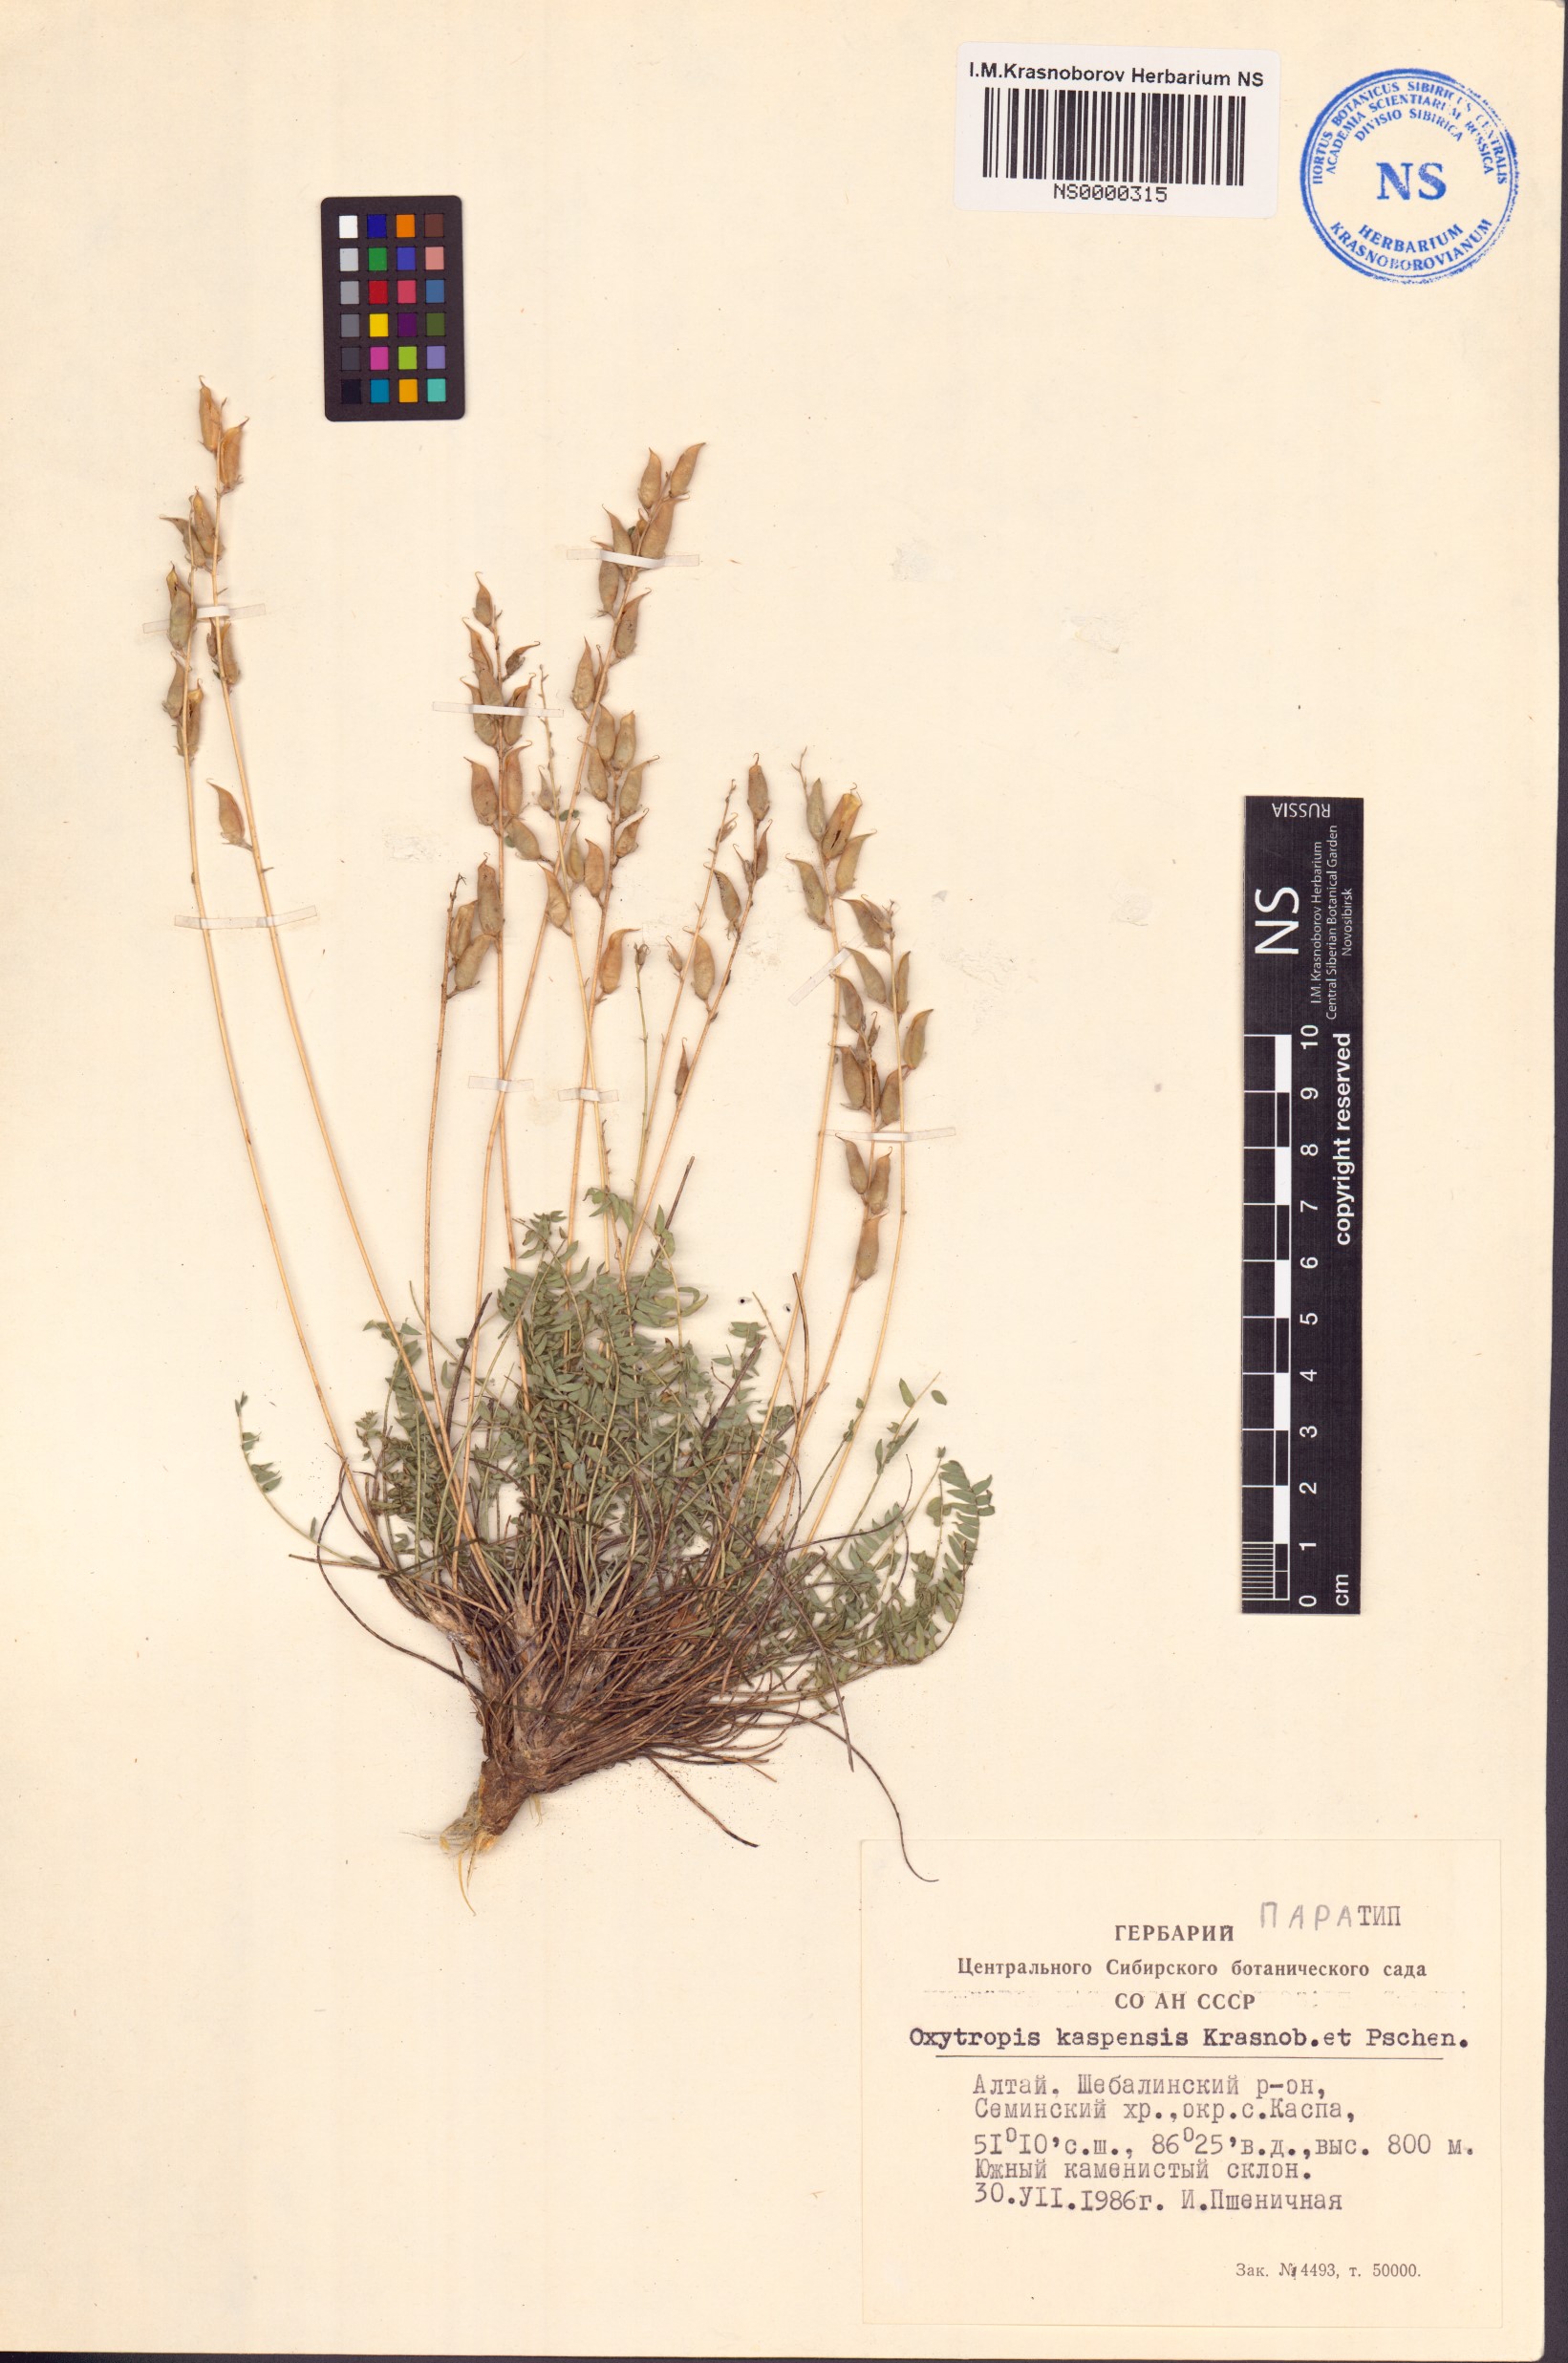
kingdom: Plantae
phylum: Tracheophyta
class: Magnoliopsida
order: Fabales
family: Fabaceae
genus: Oxytropis
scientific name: Oxytropis kaspensis
